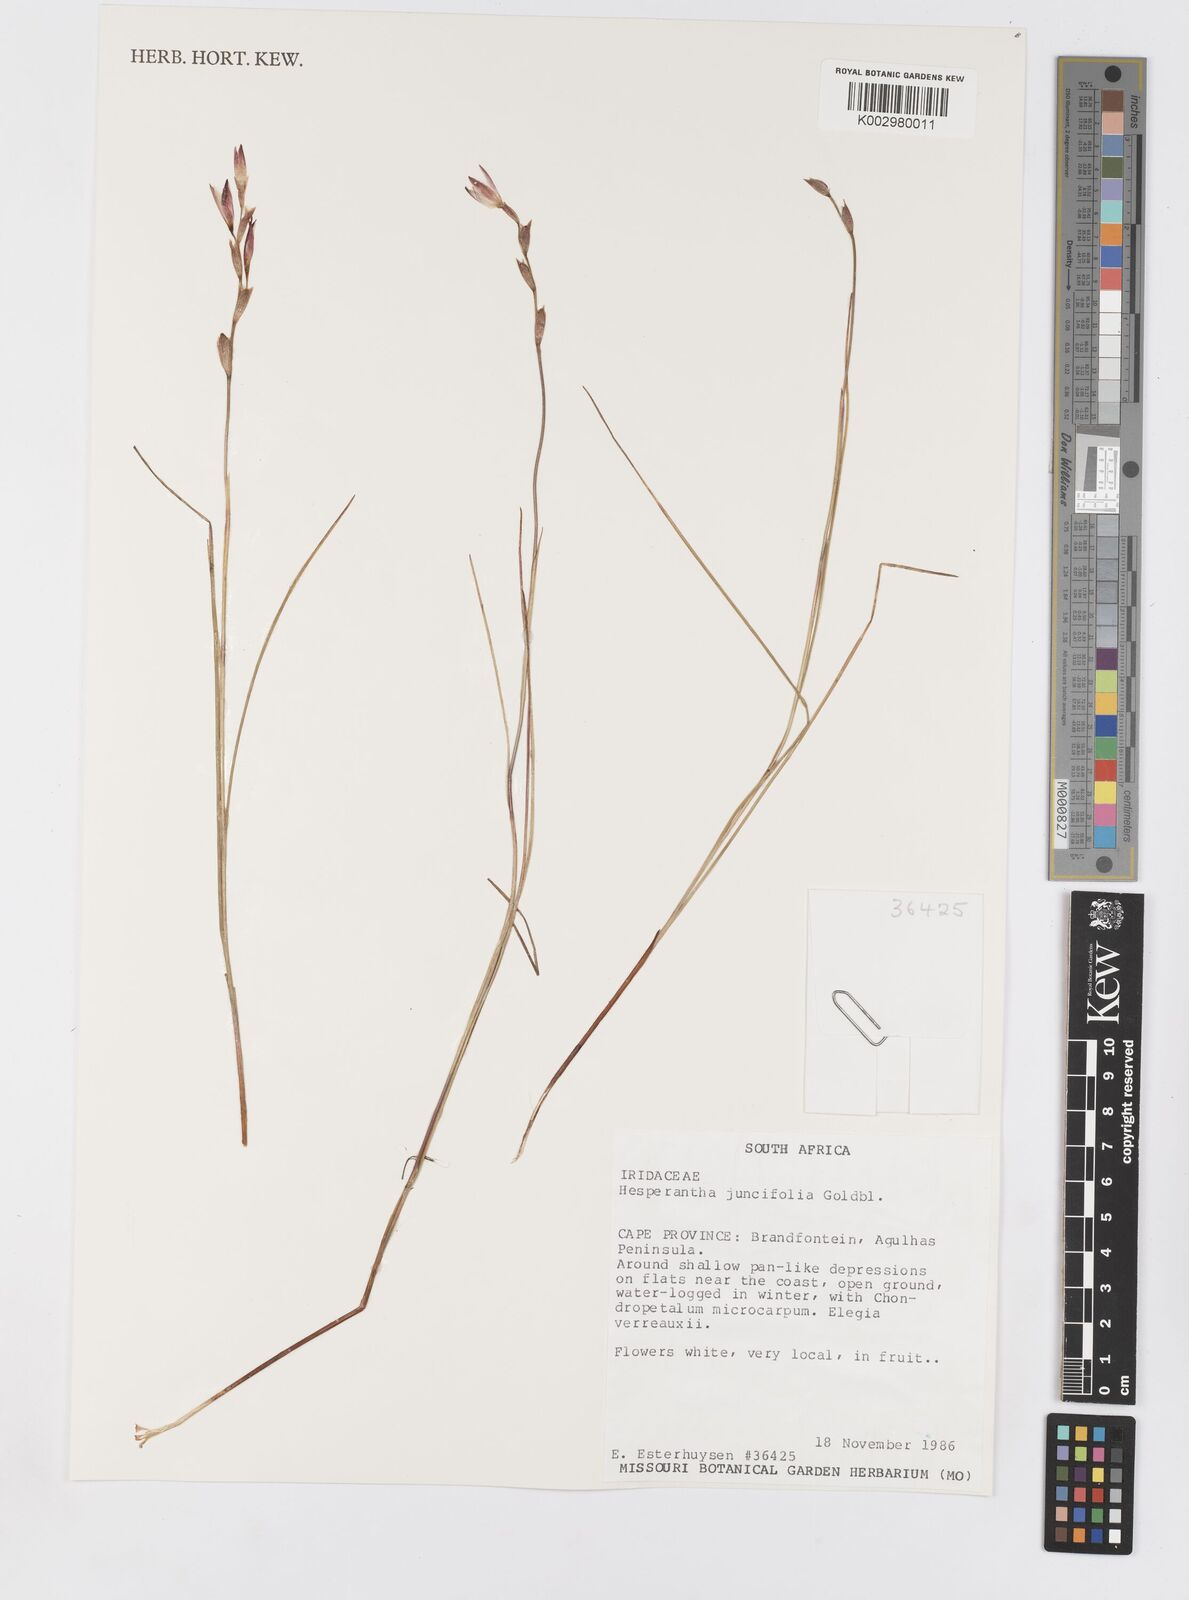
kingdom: Plantae
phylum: Tracheophyta
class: Liliopsida
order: Asparagales
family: Iridaceae
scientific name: Iridaceae
